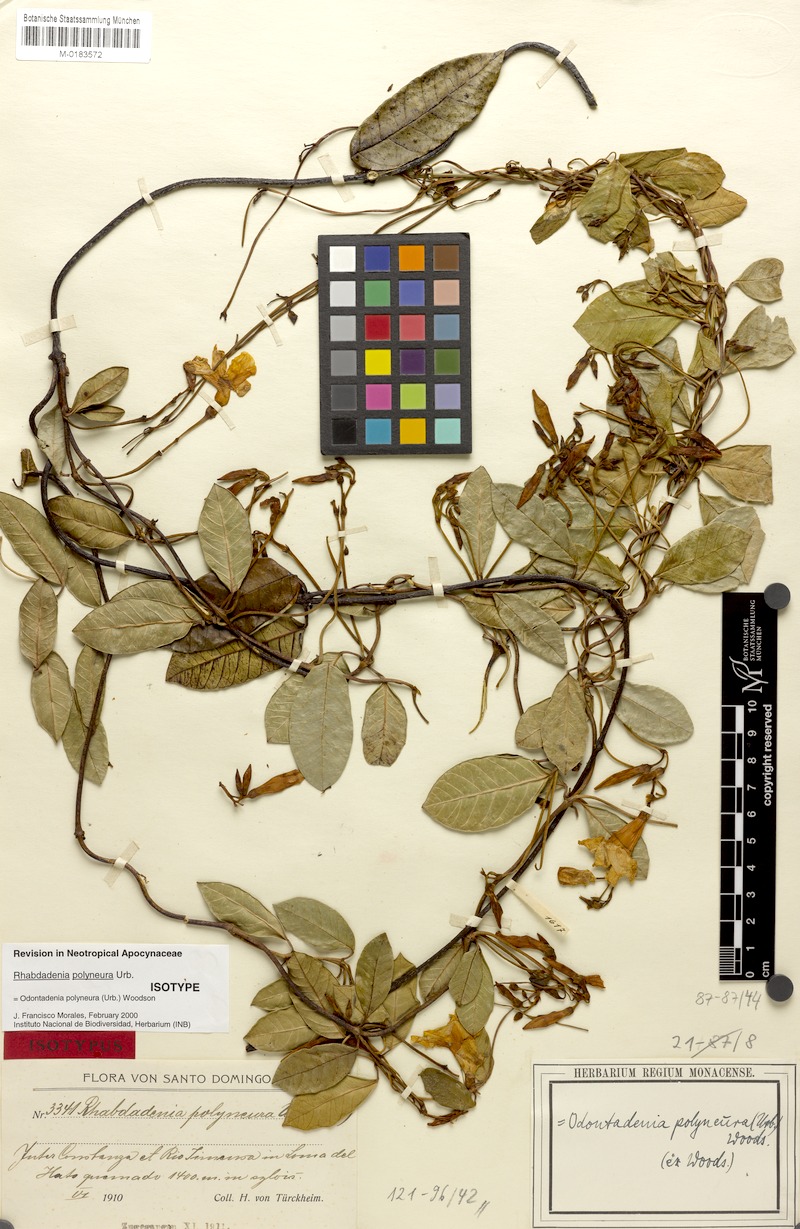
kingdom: Plantae
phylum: Tracheophyta
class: Magnoliopsida
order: Gentianales
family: Apocynaceae
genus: Odontadenia
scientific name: Odontadenia polyneura
